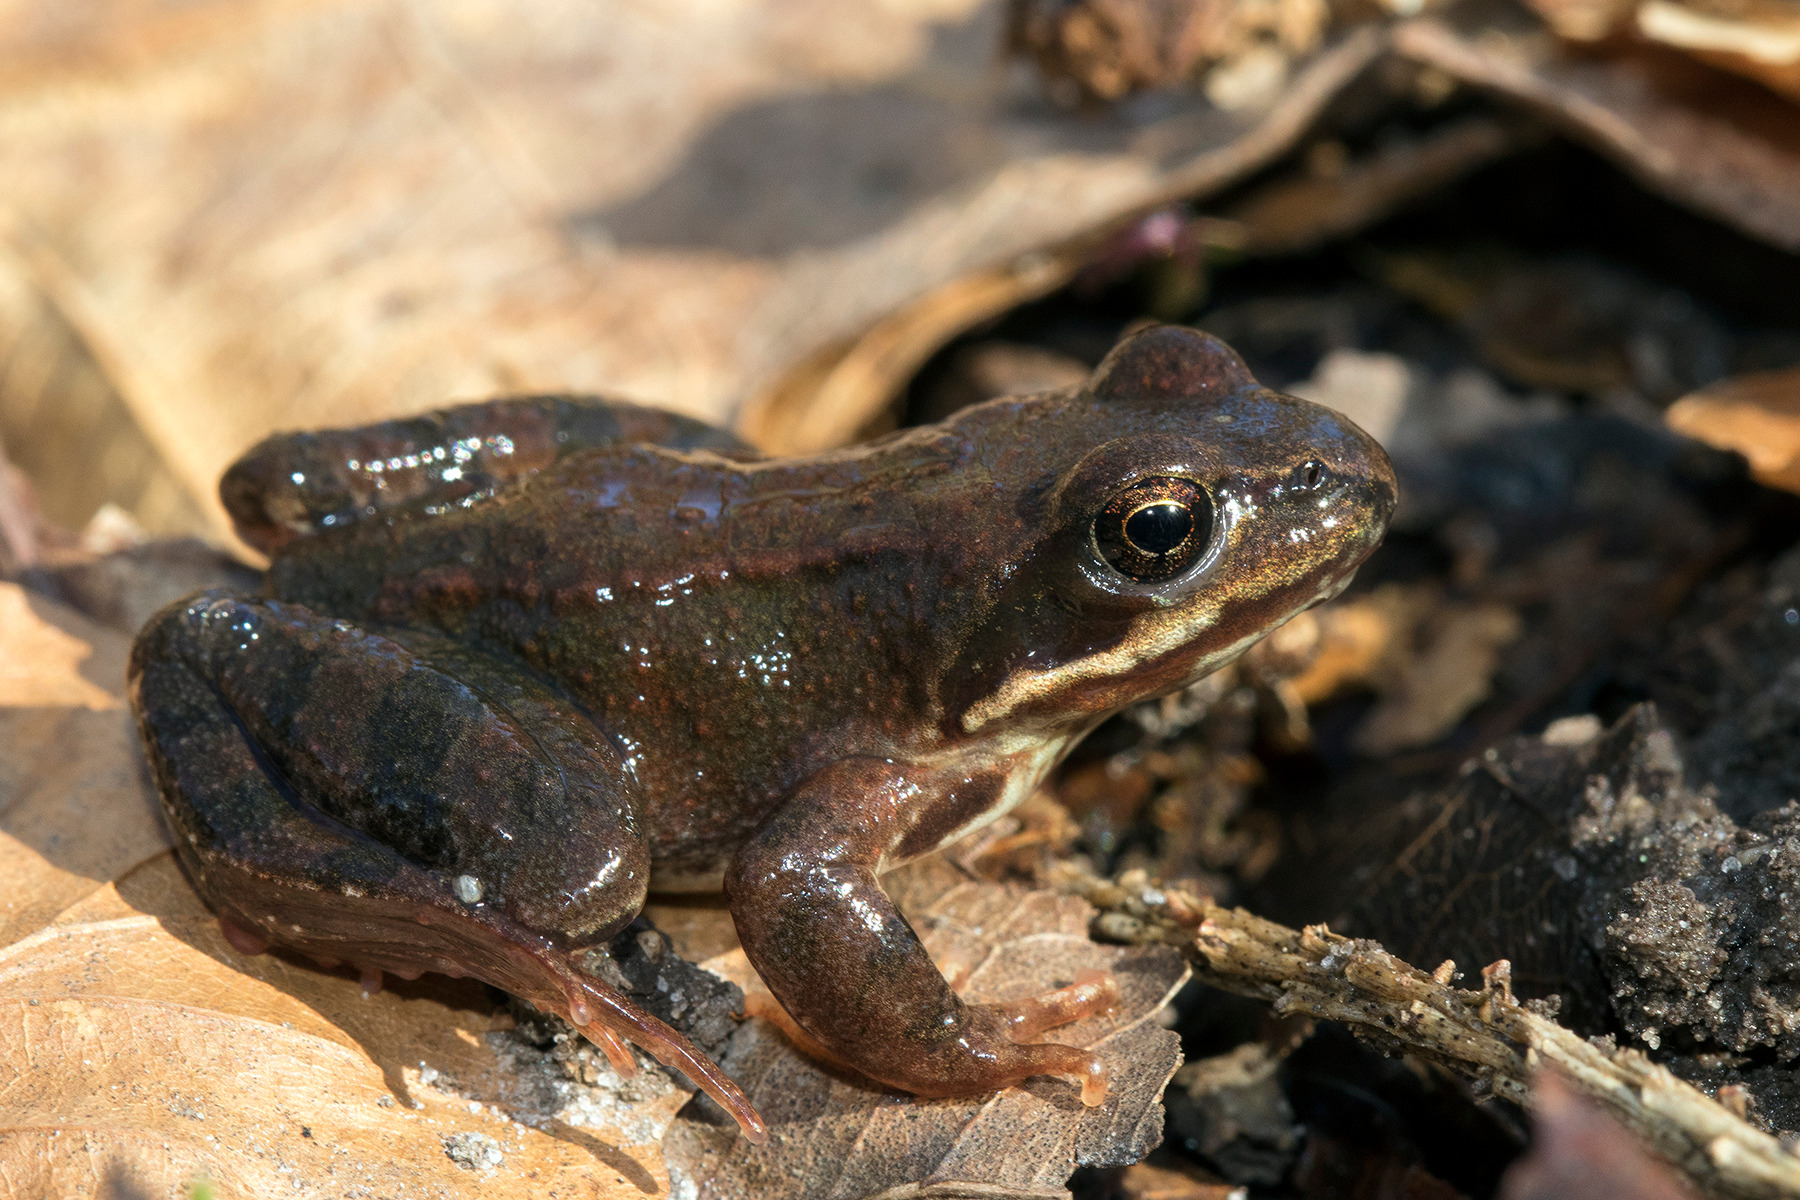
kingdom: Animalia
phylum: Chordata
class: Amphibia
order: Anura
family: Ranidae
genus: Rana
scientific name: Rana temporaria
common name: Butsnudet frø
